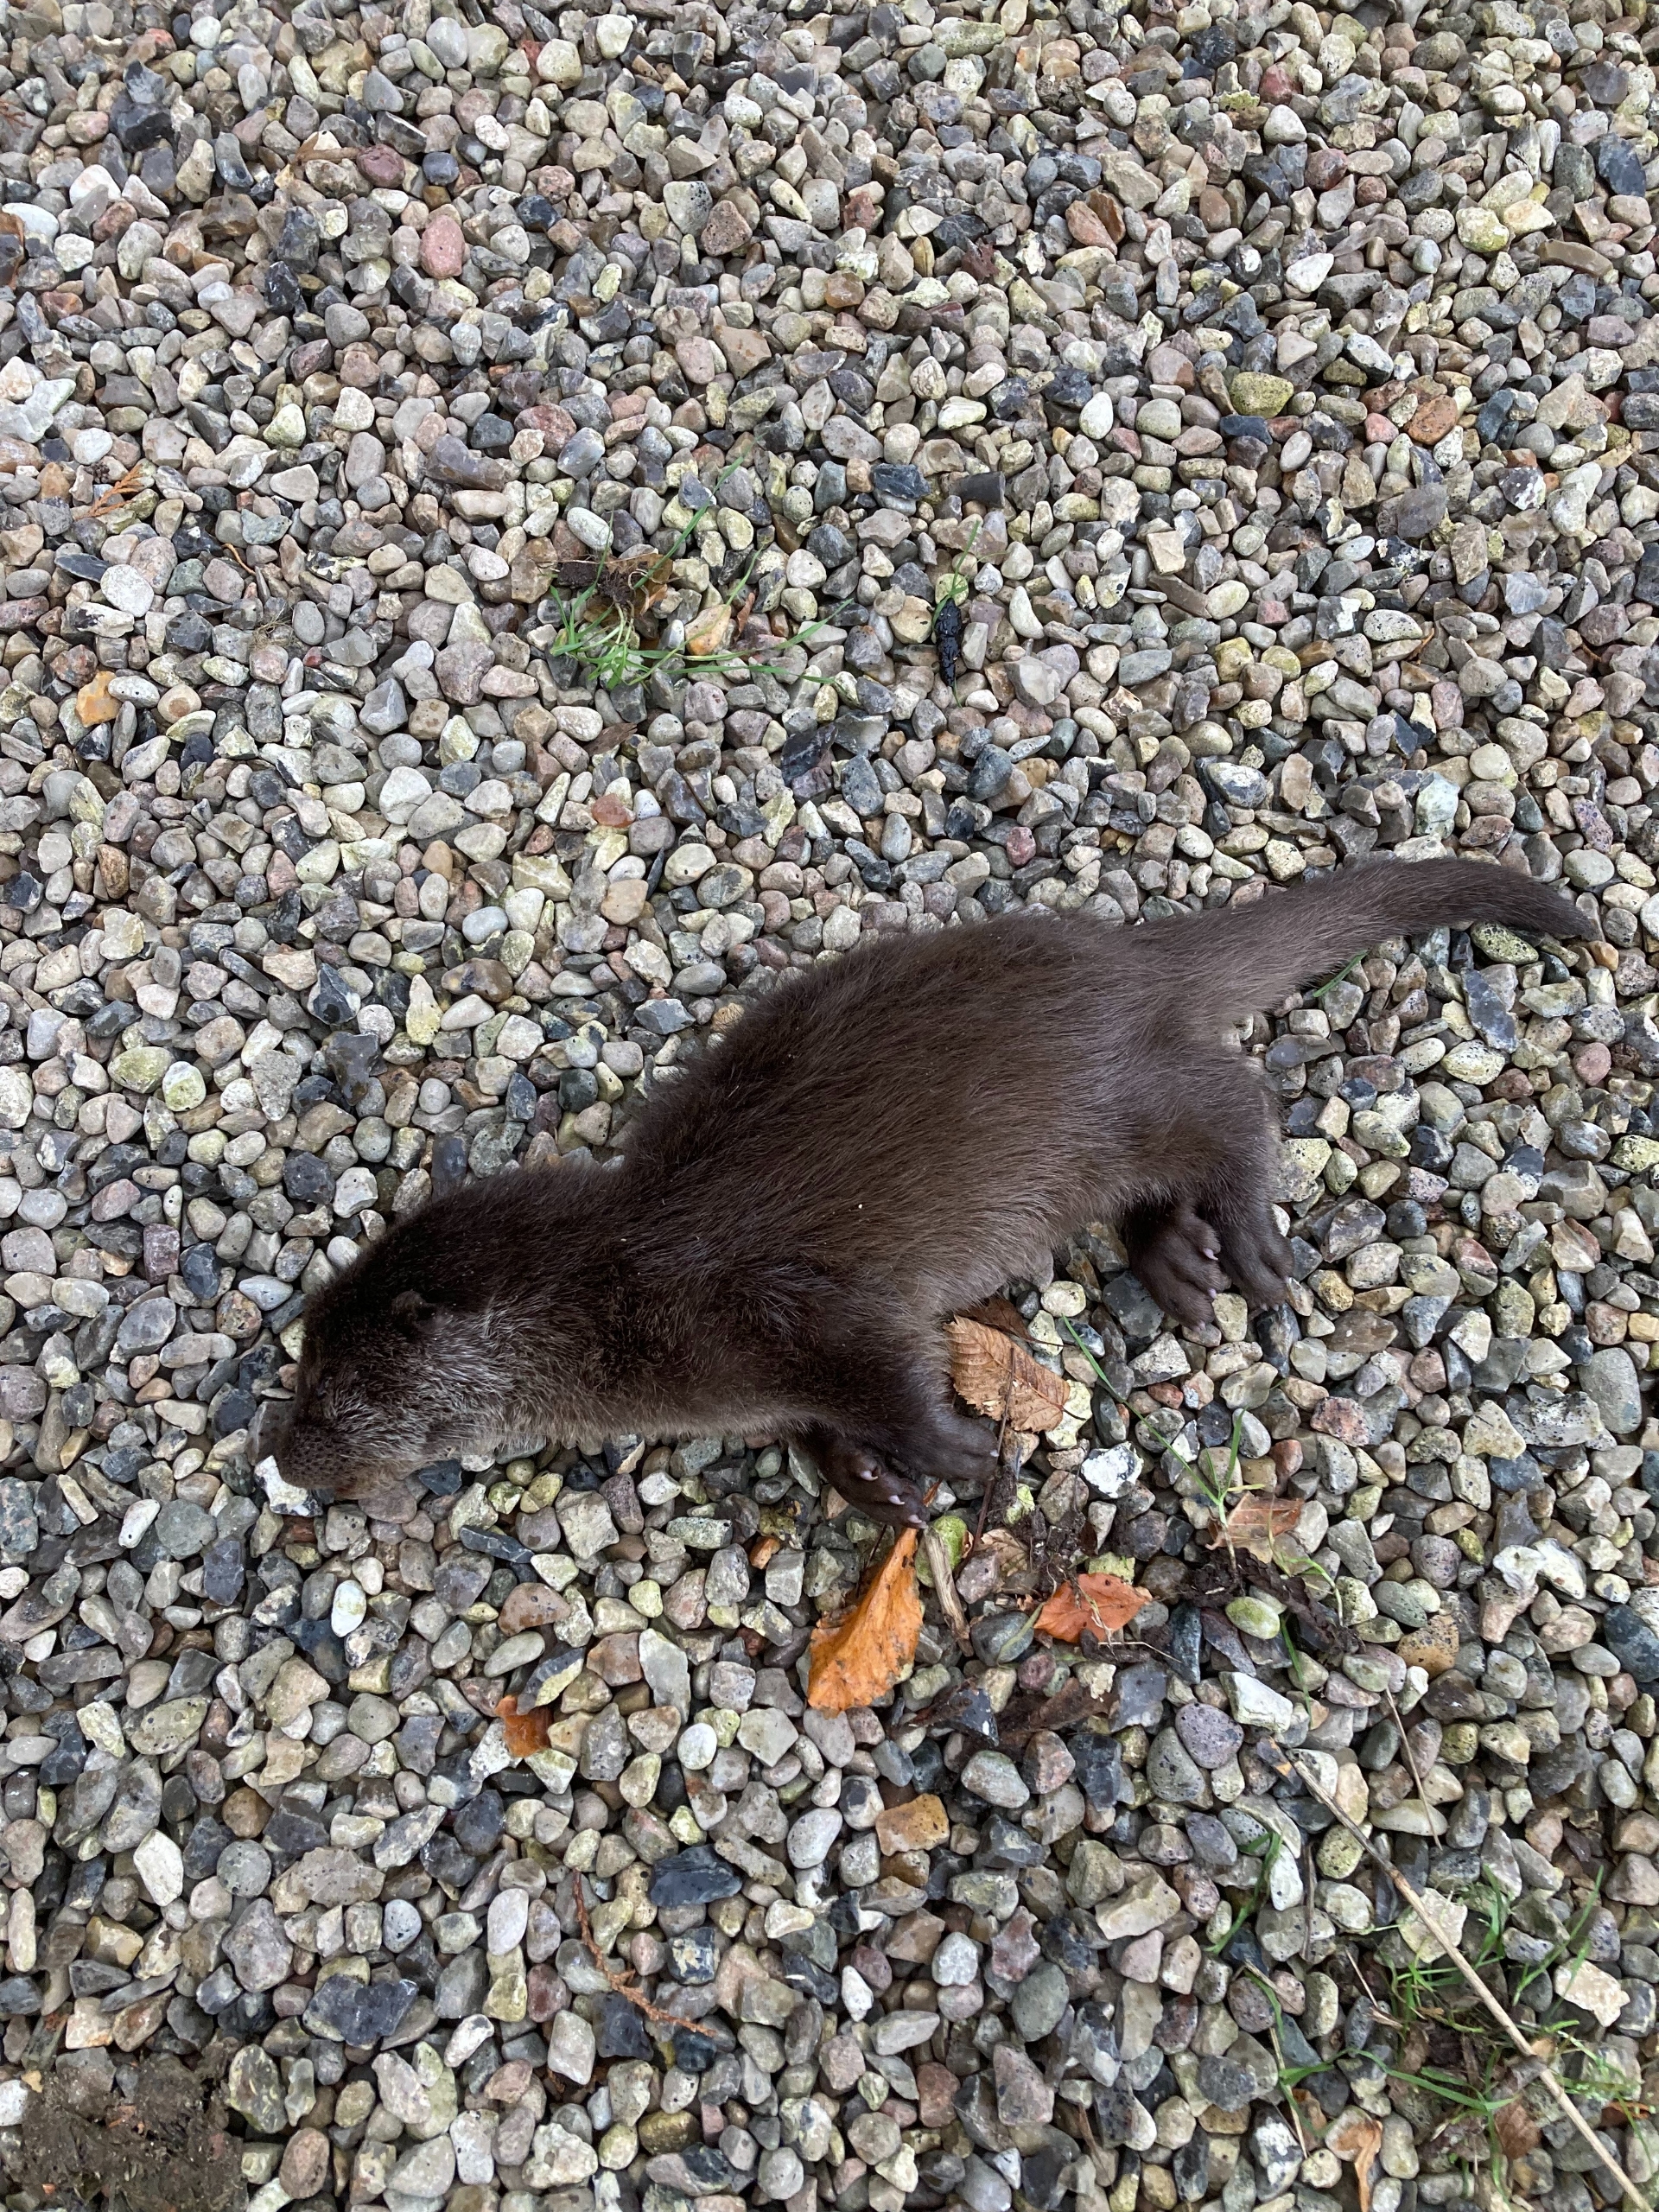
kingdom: Animalia
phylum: Chordata
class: Mammalia
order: Carnivora
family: Mustelidae
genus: Lutra
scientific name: Lutra lutra
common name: Odder
